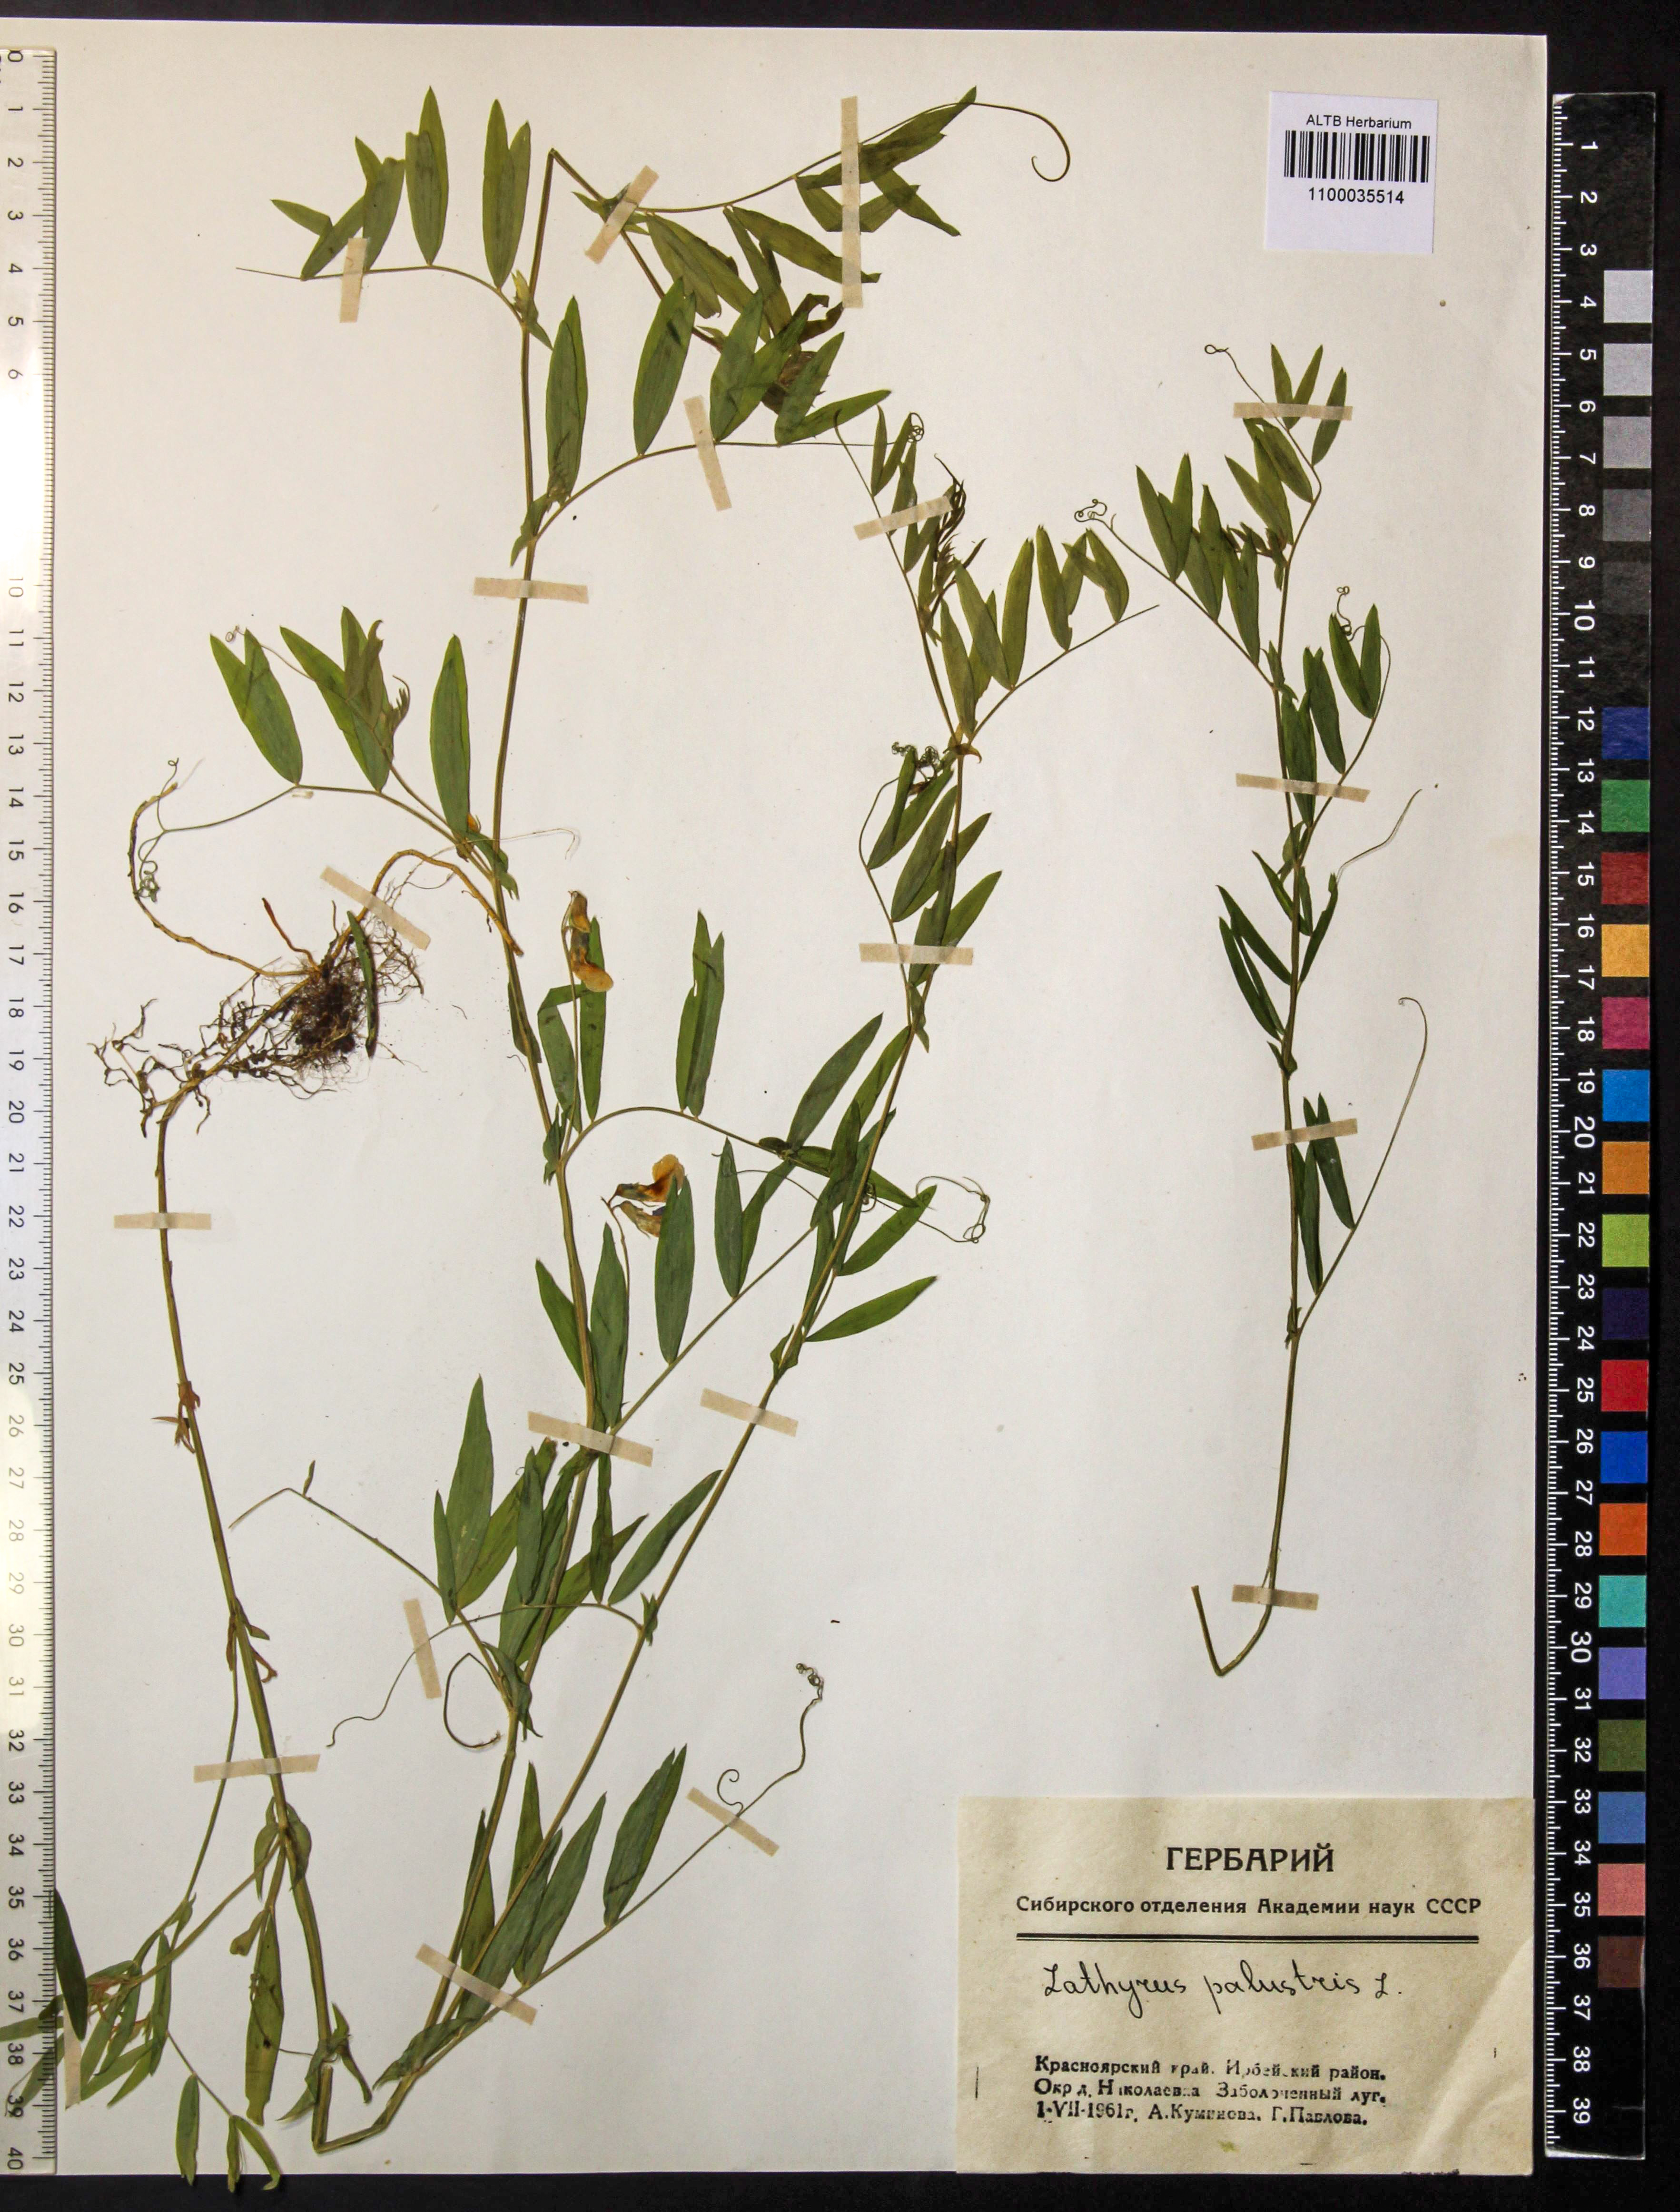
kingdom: Plantae
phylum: Tracheophyta
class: Magnoliopsida
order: Fabales
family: Fabaceae
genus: Lathyrus
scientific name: Lathyrus palustris
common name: Marsh pea
